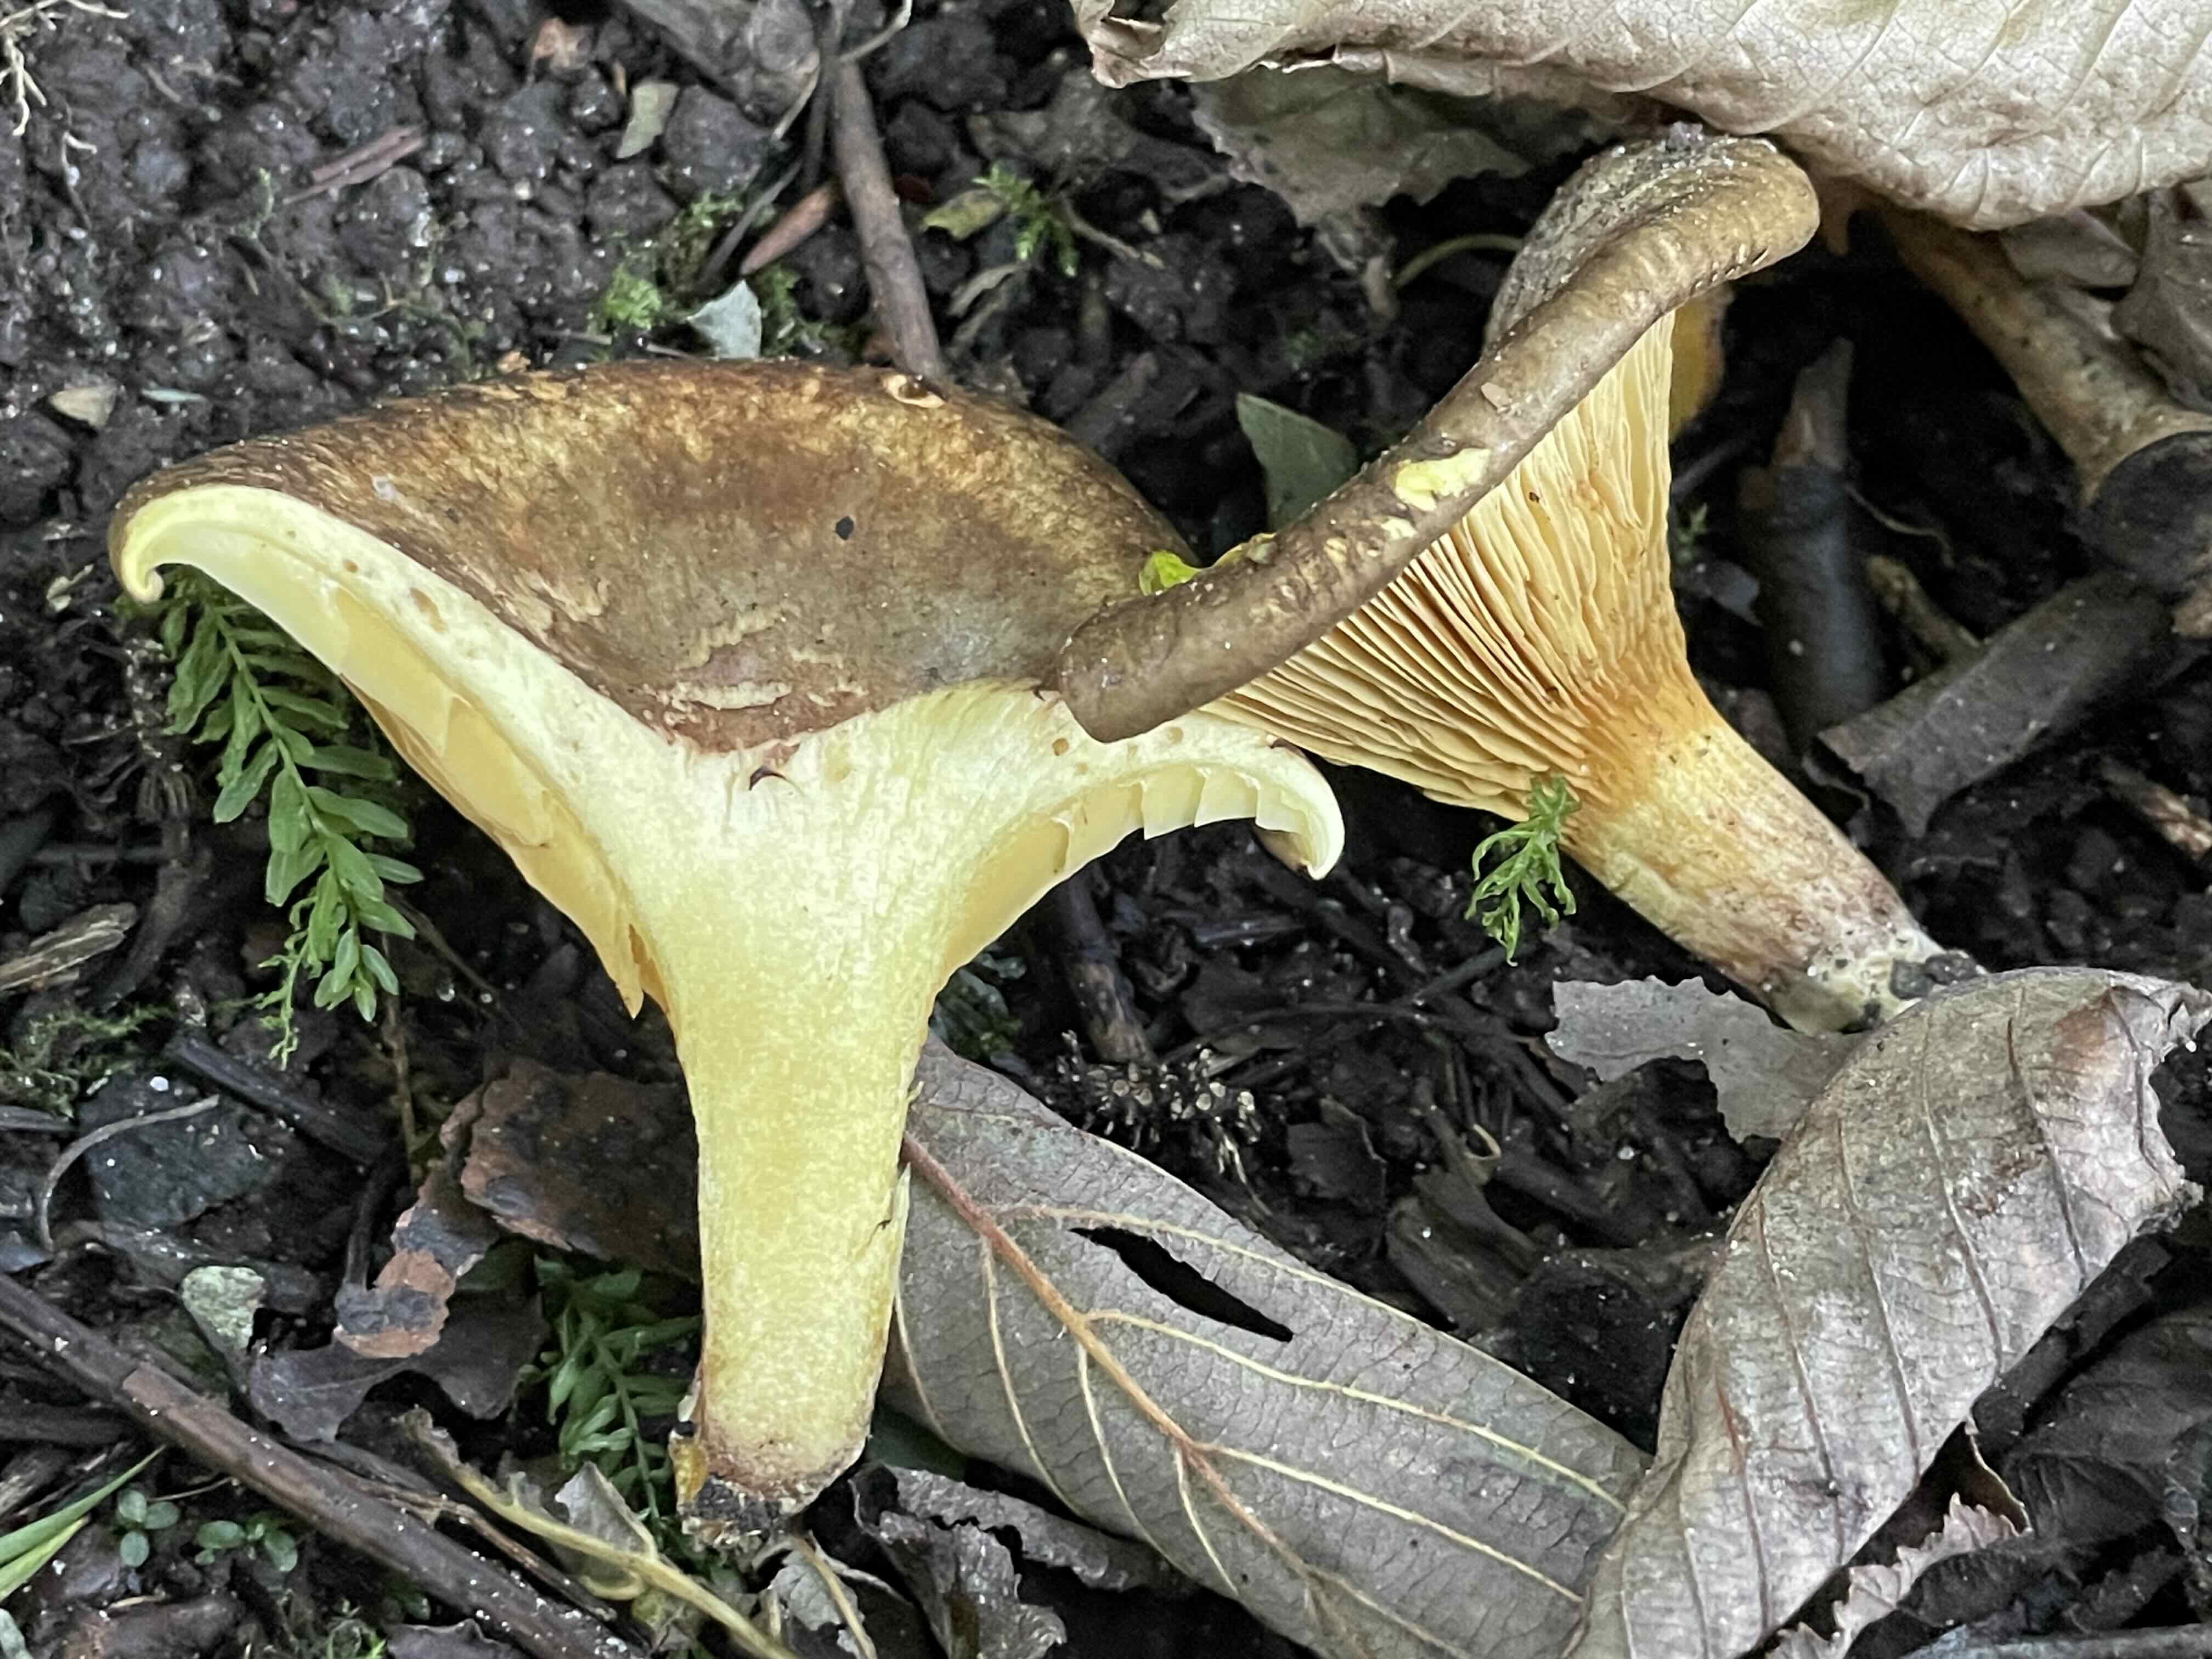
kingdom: Fungi
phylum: Basidiomycota
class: Agaricomycetes
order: Boletales
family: Paxillaceae
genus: Paxillus
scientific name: Paxillus rubicundulus
